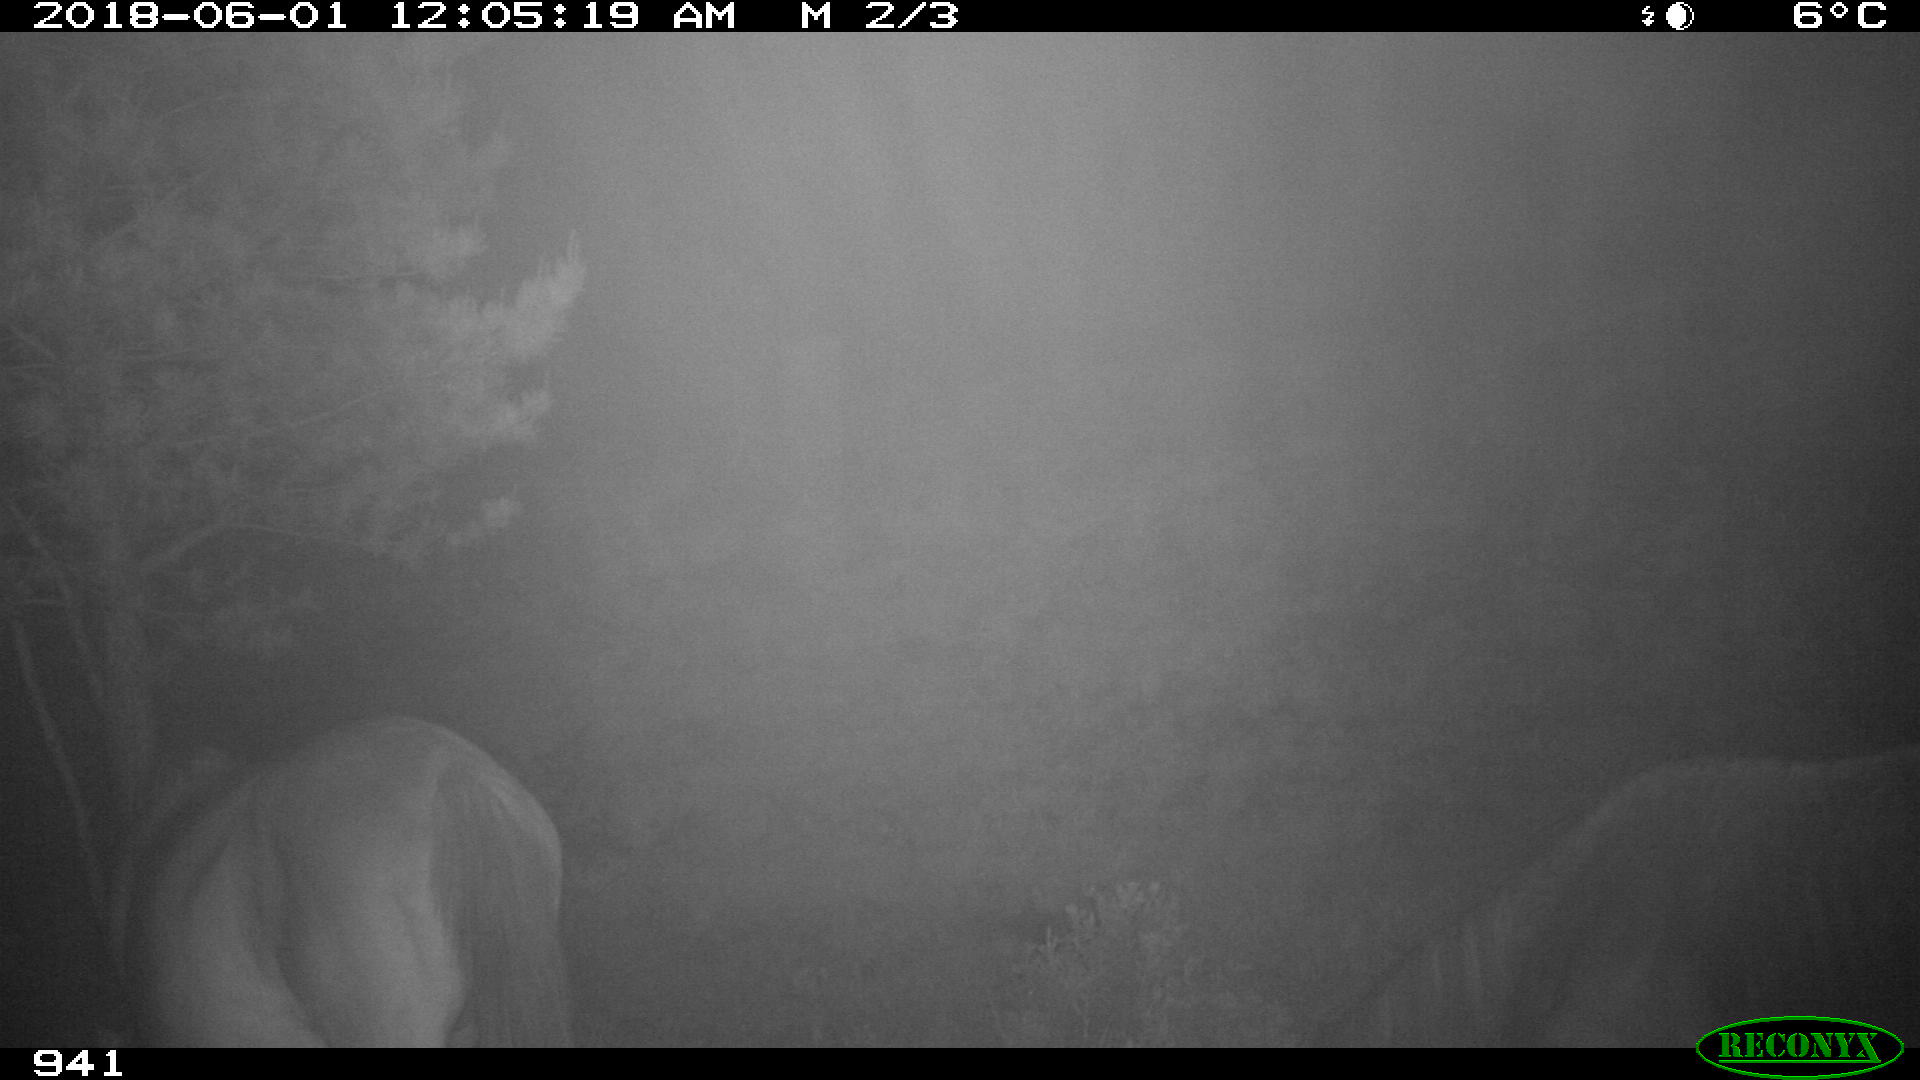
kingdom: Animalia
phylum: Chordata
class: Mammalia
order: Perissodactyla
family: Equidae
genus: Equus
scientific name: Equus caballus
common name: Horse
